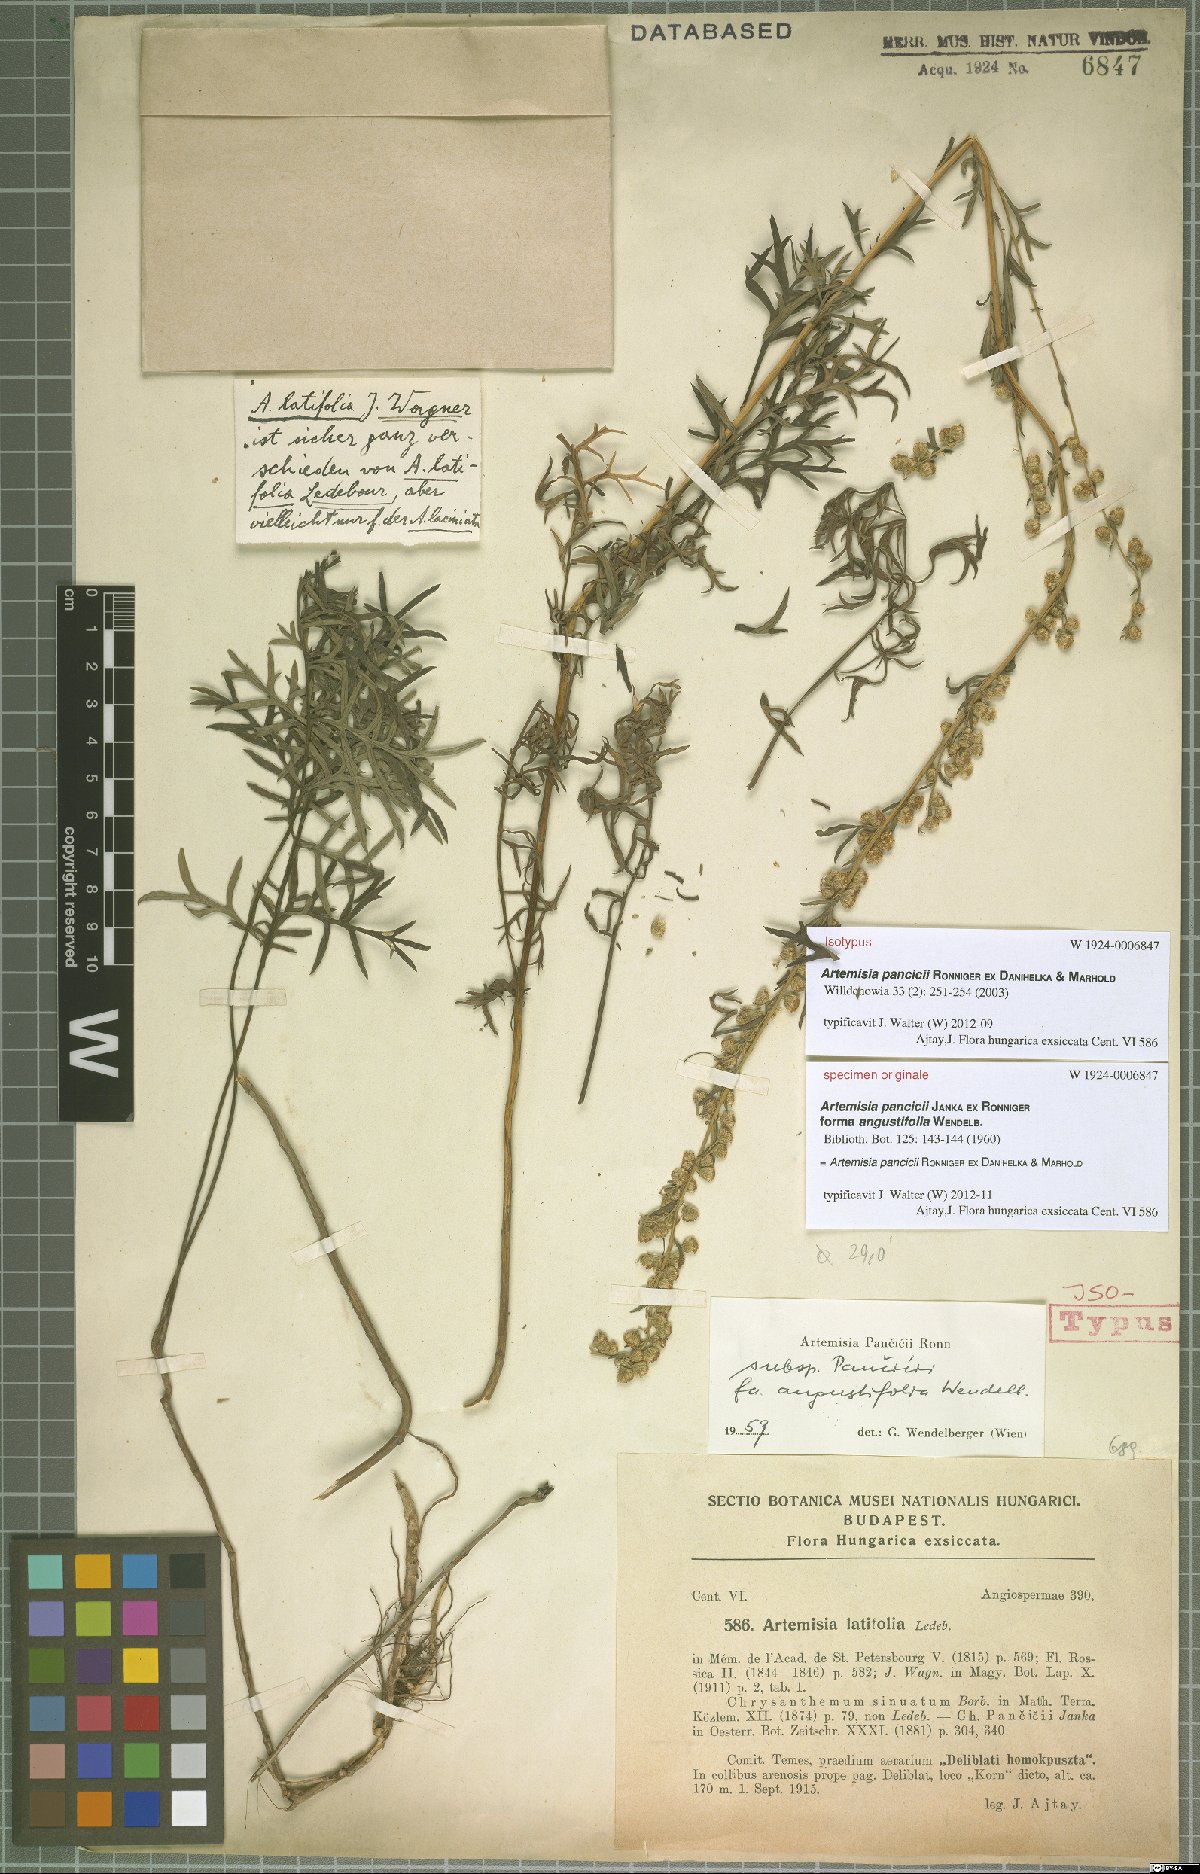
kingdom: Plantae
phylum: Tracheophyta
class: Magnoliopsida
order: Asterales
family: Asteraceae
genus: Artemisia
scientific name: Artemisia pancicii
